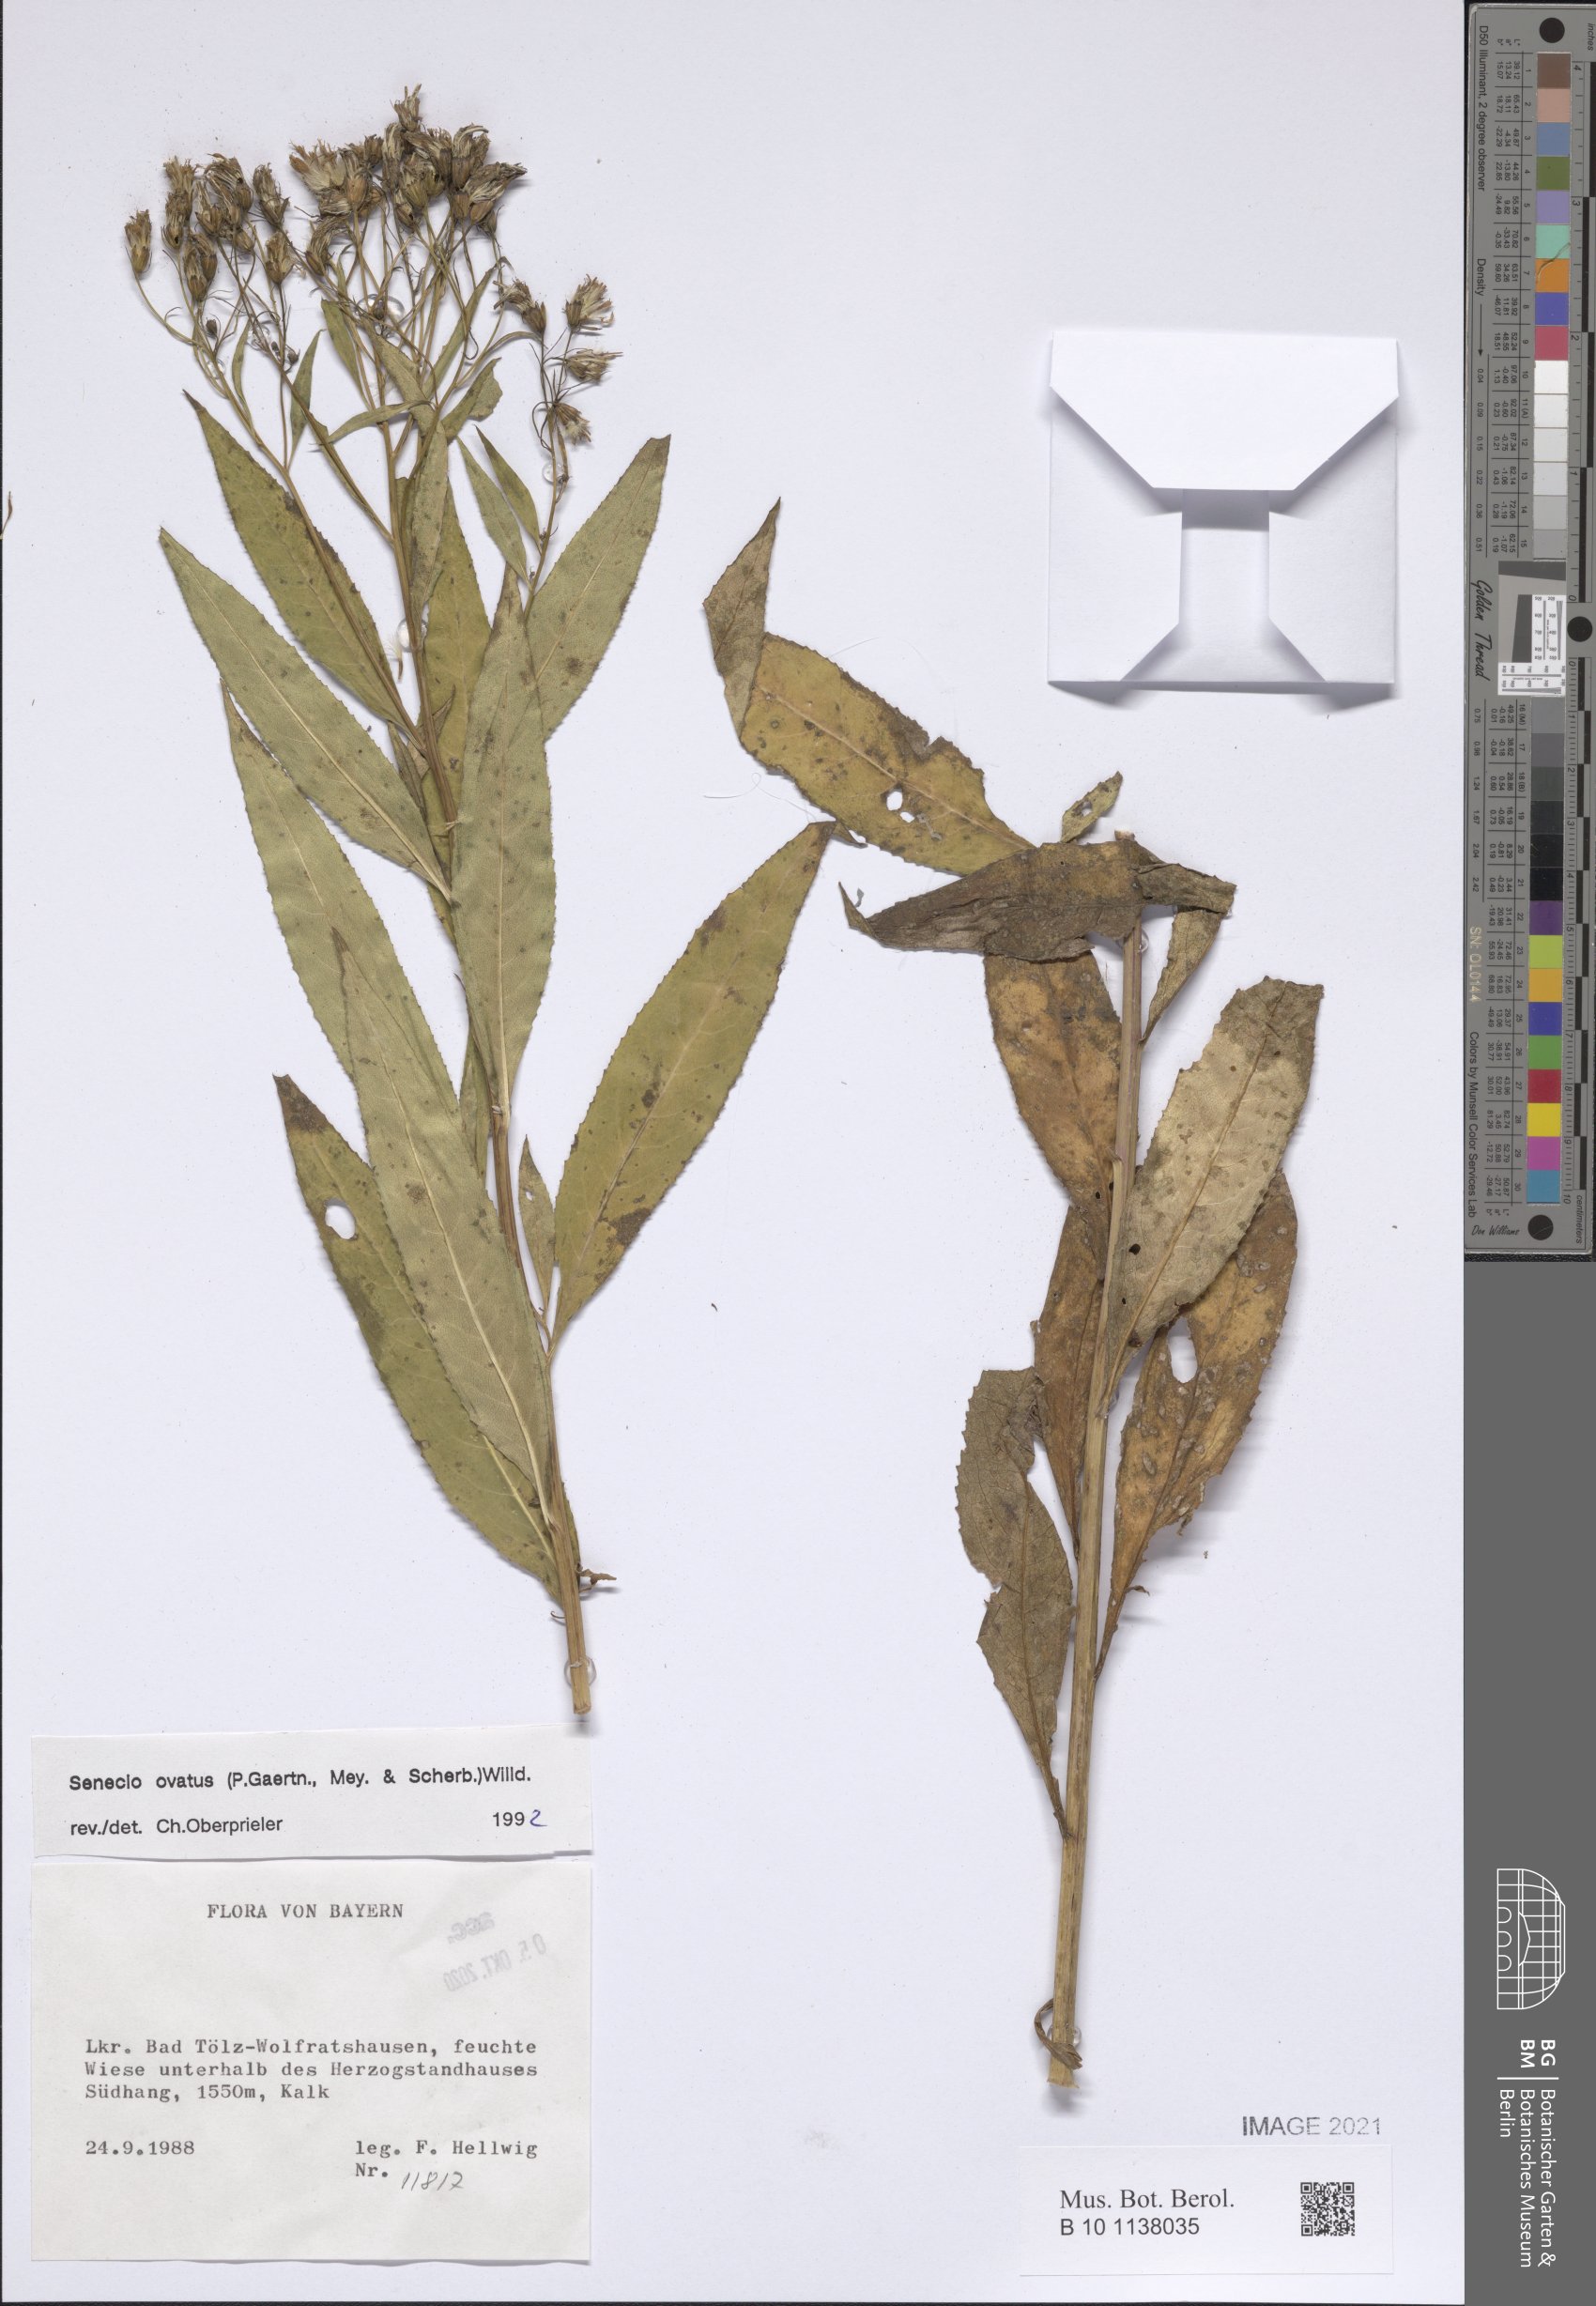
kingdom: Plantae
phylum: Tracheophyta
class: Magnoliopsida
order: Asterales
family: Asteraceae
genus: Senecio
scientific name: Senecio ovatus
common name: Wood ragwort
